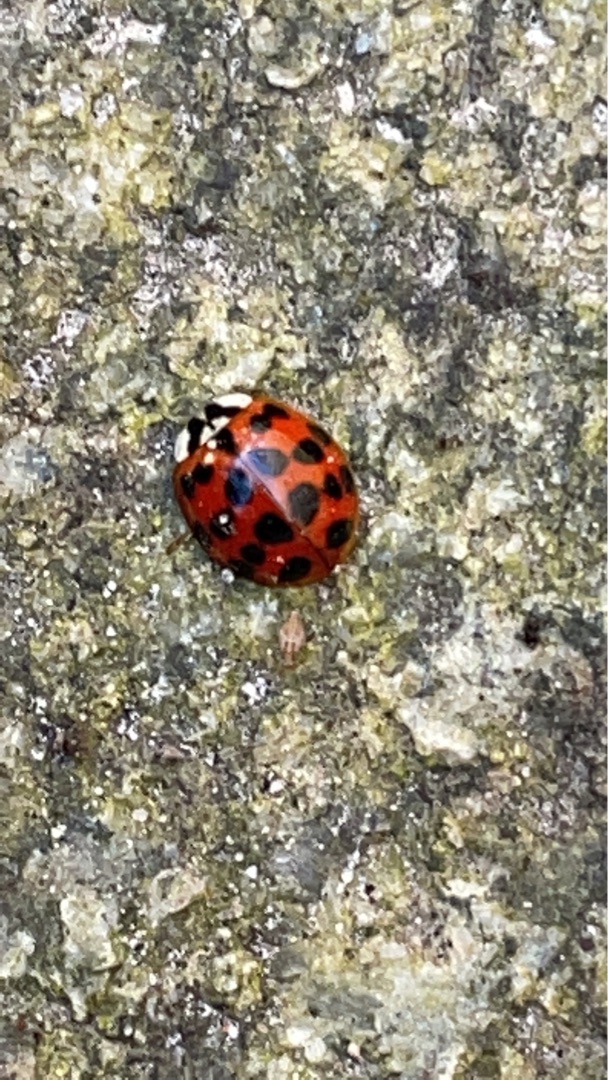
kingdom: Animalia
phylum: Arthropoda
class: Insecta
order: Coleoptera
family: Coccinellidae
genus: Harmonia
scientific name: Harmonia axyridis
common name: Harlekinmariehøne
